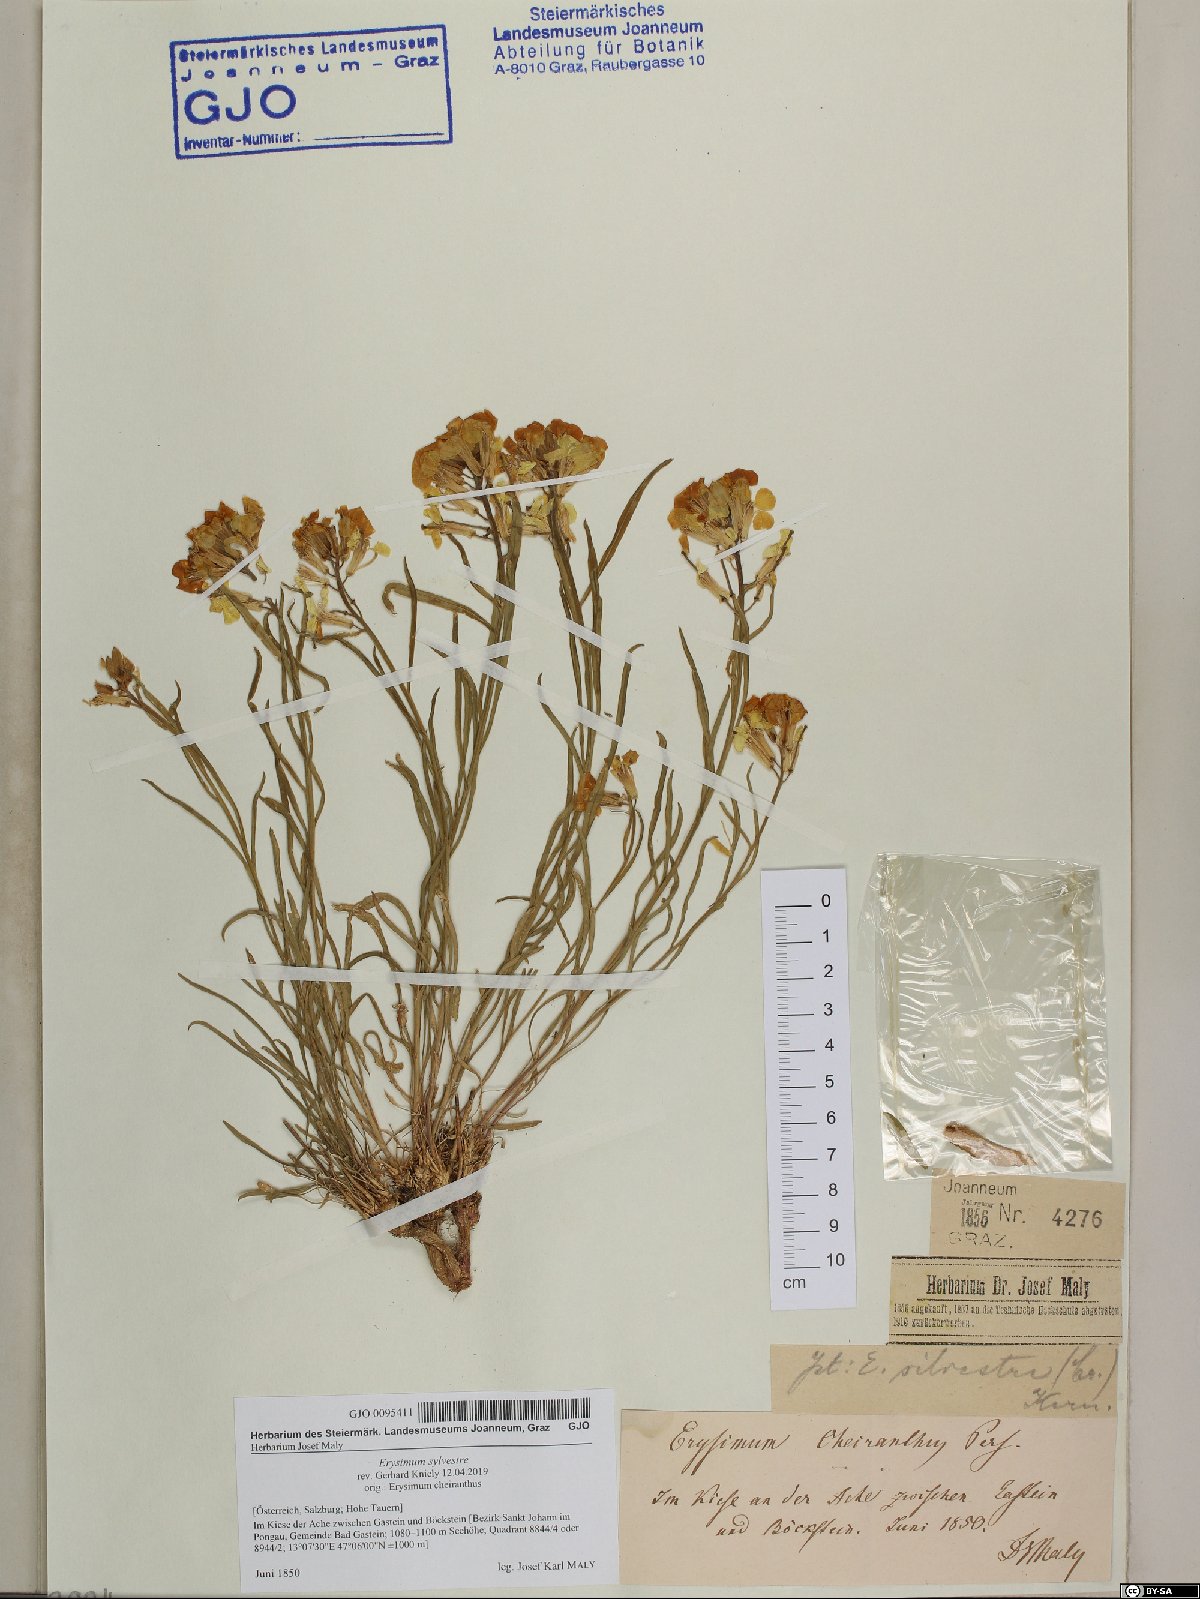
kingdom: Plantae
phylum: Tracheophyta
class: Magnoliopsida
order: Brassicales
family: Brassicaceae
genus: Erysimum
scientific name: Erysimum sylvestre
